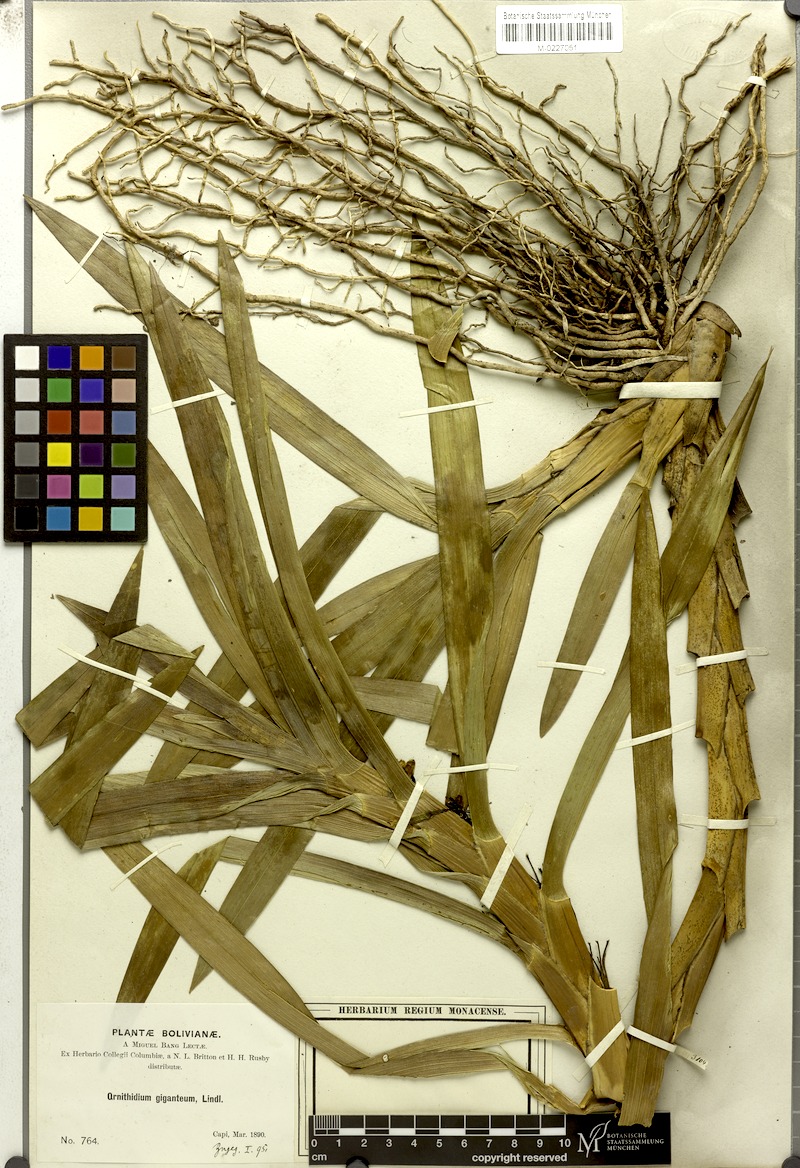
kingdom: Plantae
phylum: Tracheophyta
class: Liliopsida
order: Asparagales
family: Orchidaceae
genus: Maxillaria
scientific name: Maxillaria aurea
